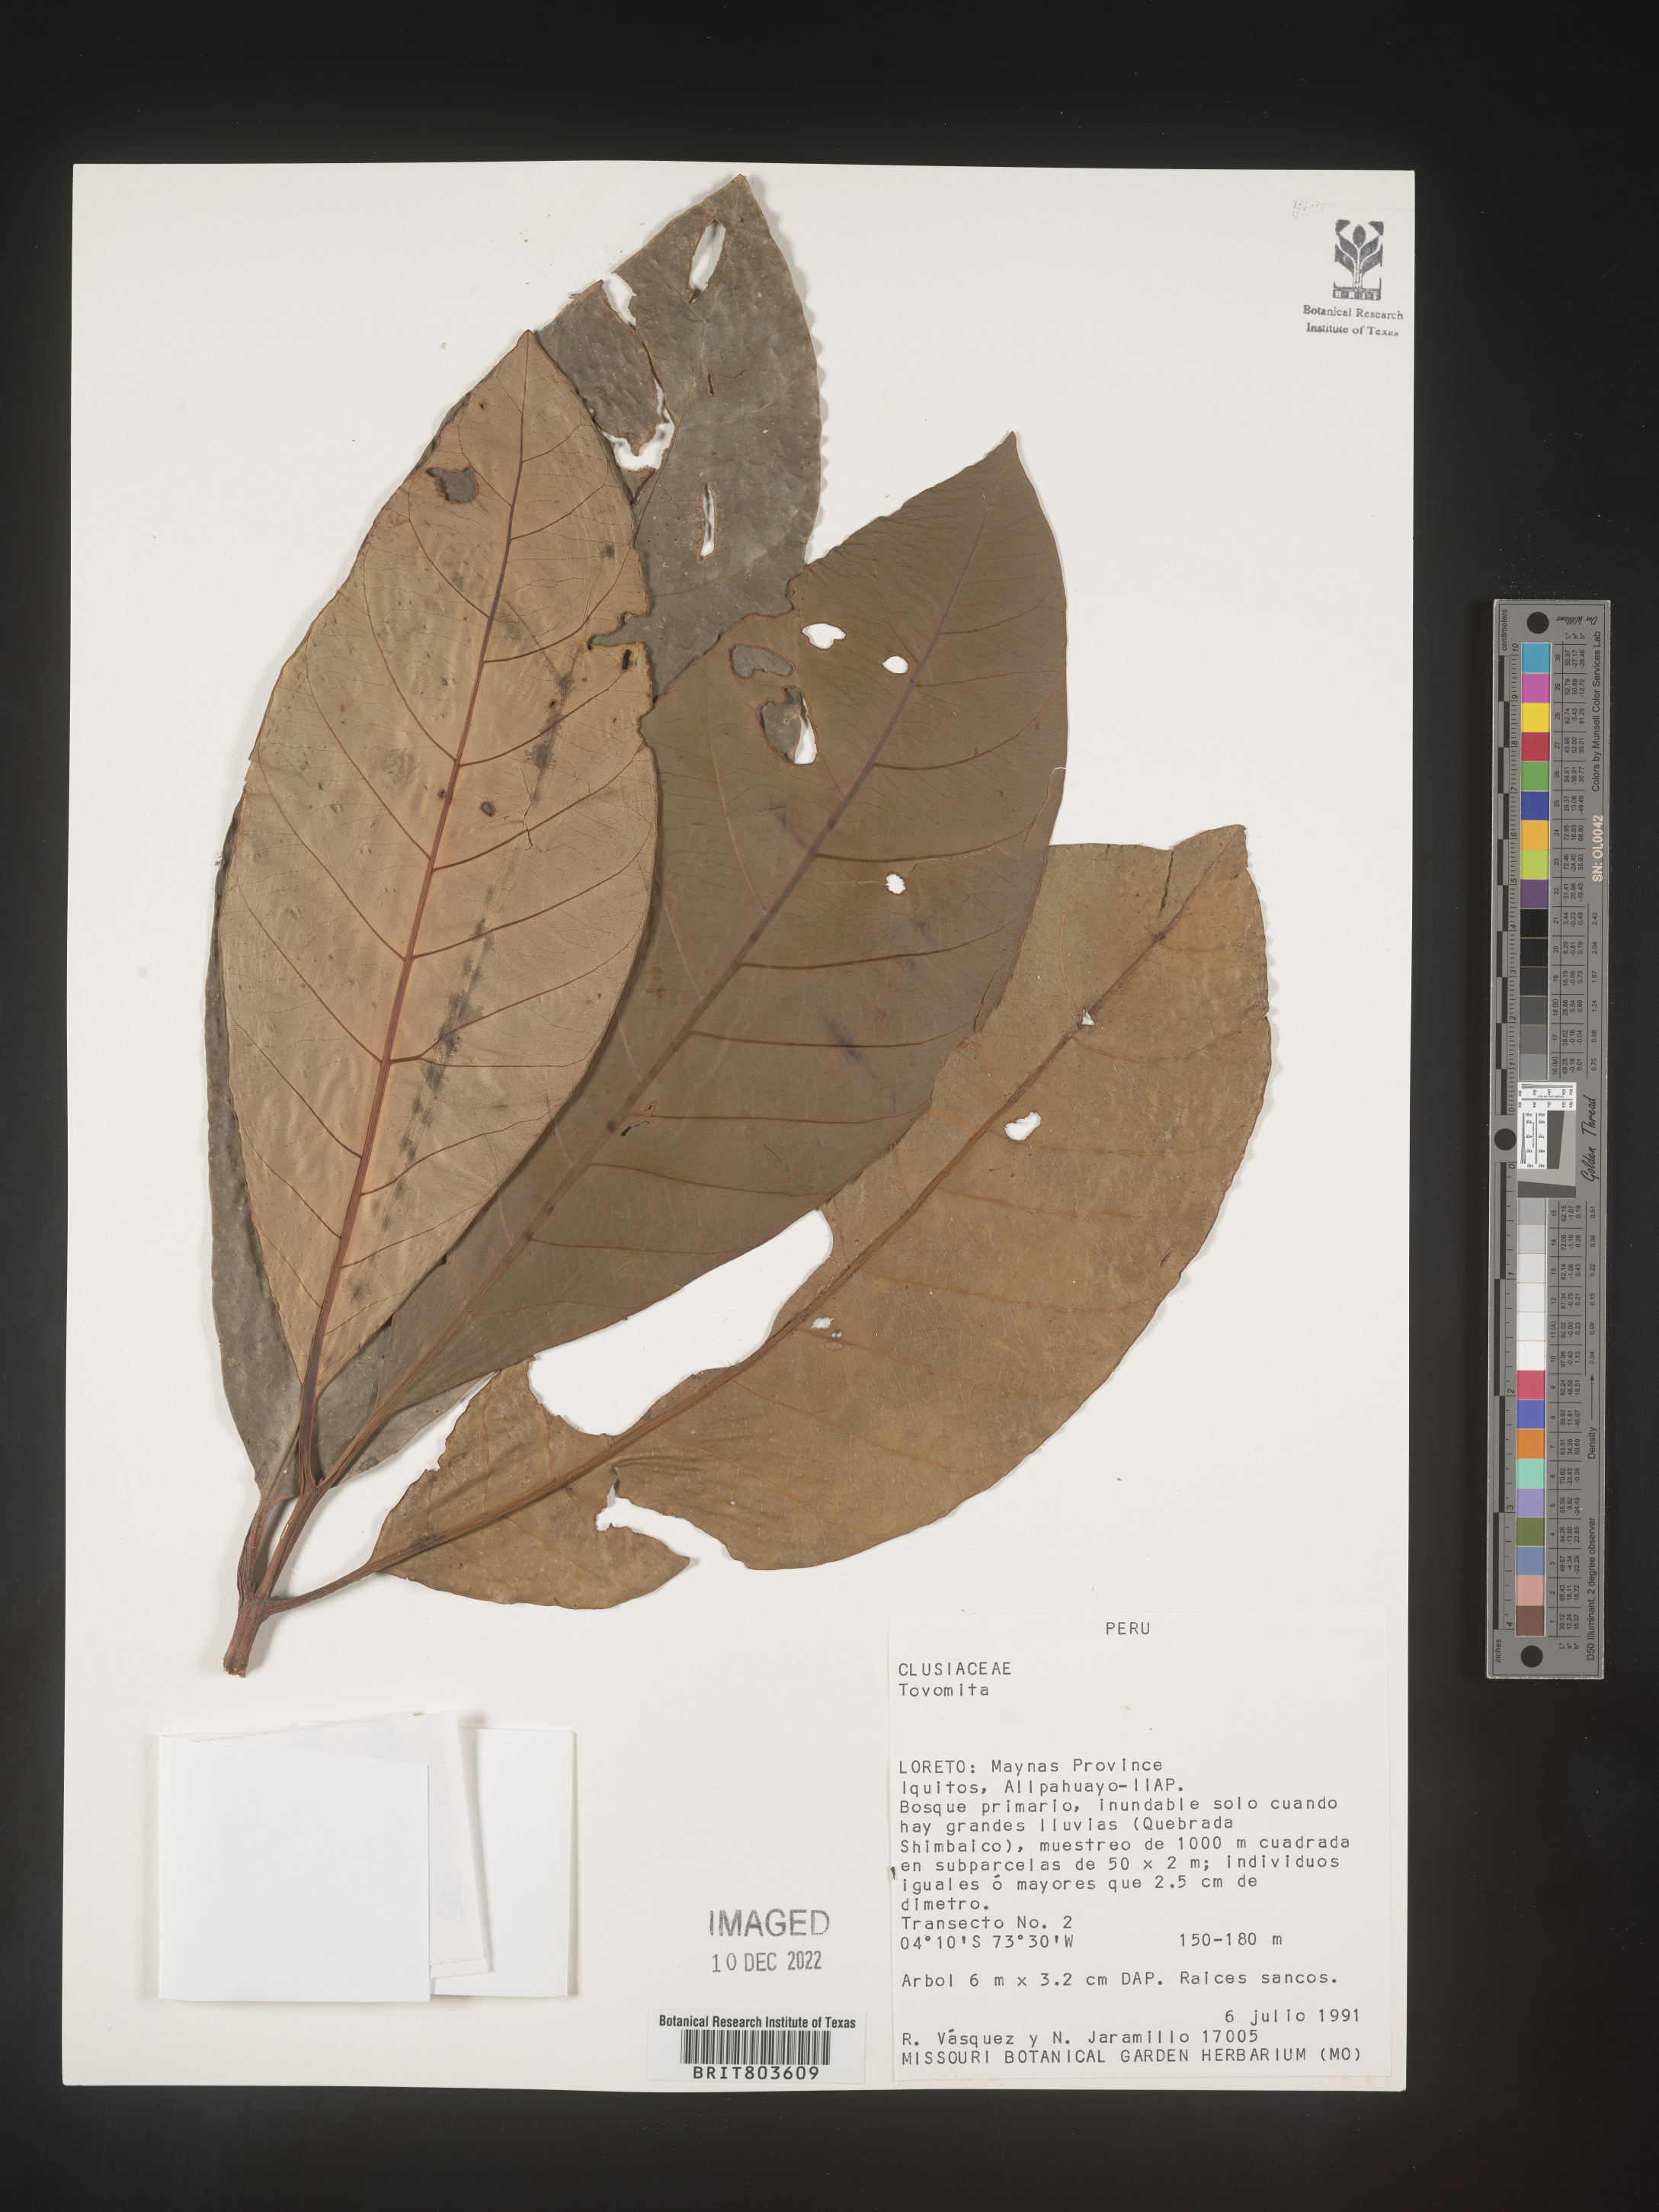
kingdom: Plantae
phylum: Tracheophyta
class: Magnoliopsida
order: Malpighiales
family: Clusiaceae
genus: Tovomita
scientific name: Tovomita
